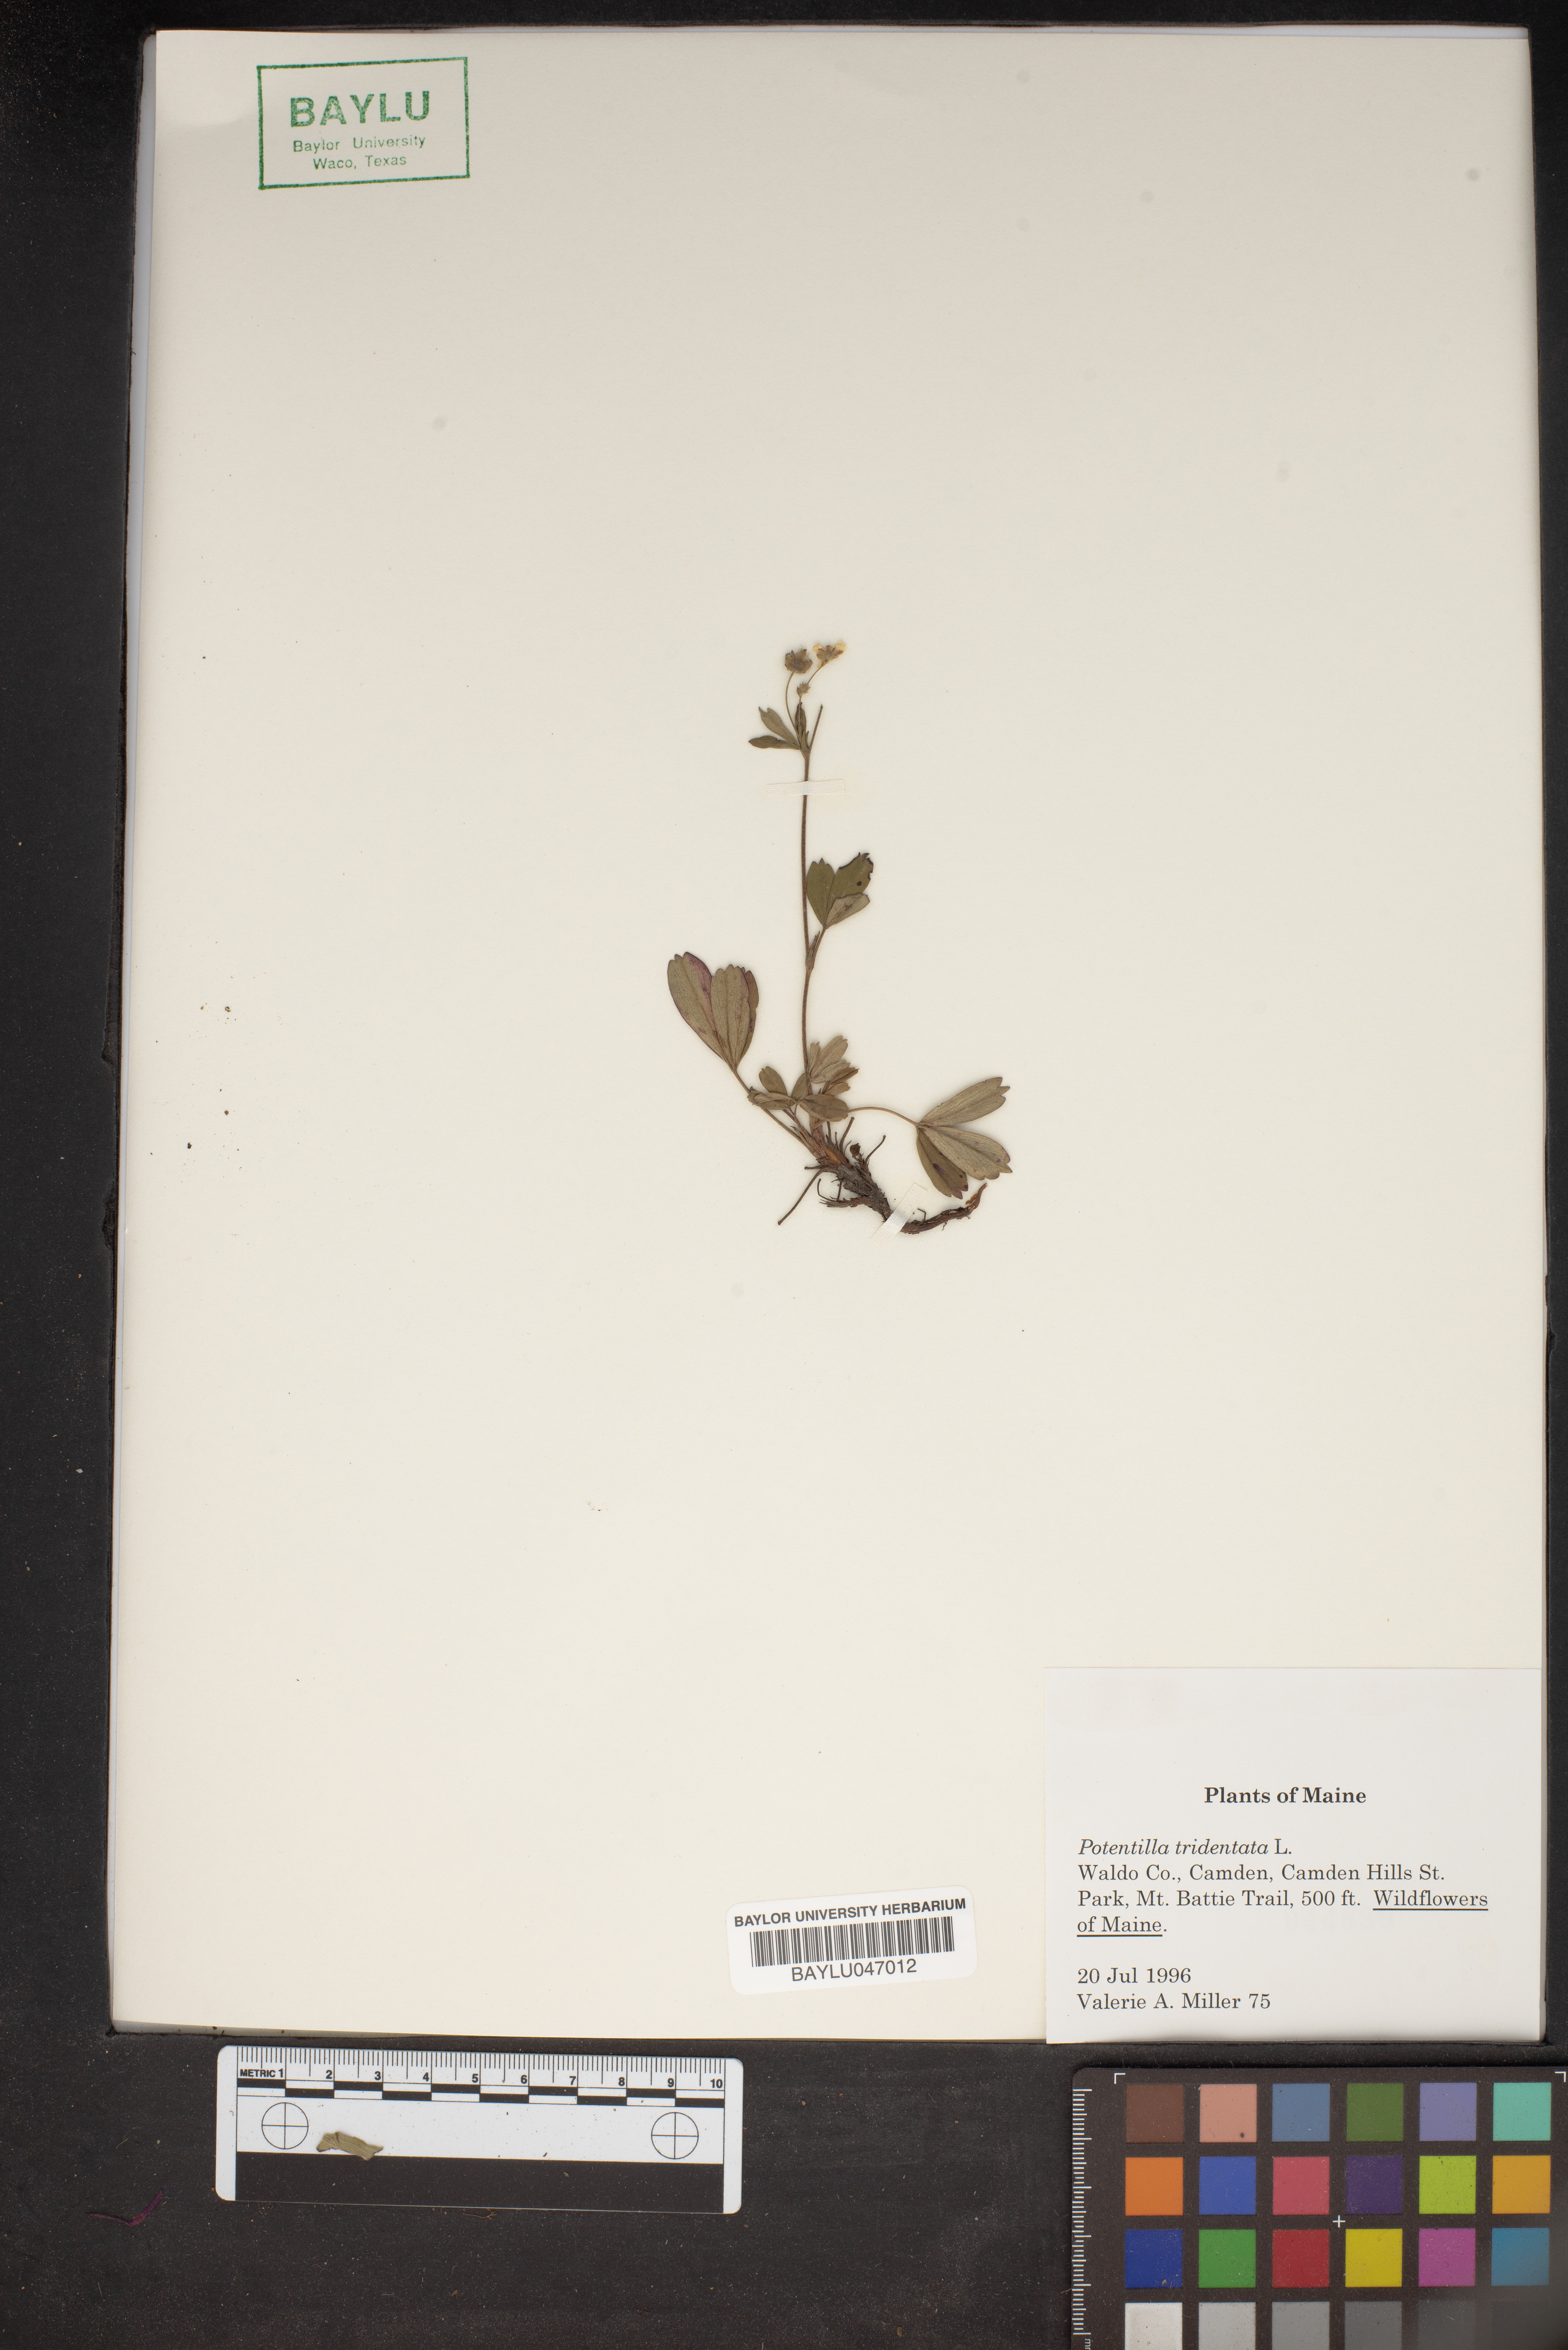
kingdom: Plantae
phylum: Tracheophyta
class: Magnoliopsida
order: Rosales
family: Rosaceae
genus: Sibbaldia
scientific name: Sibbaldia tridentata
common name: Three-toothed cinquefoil
